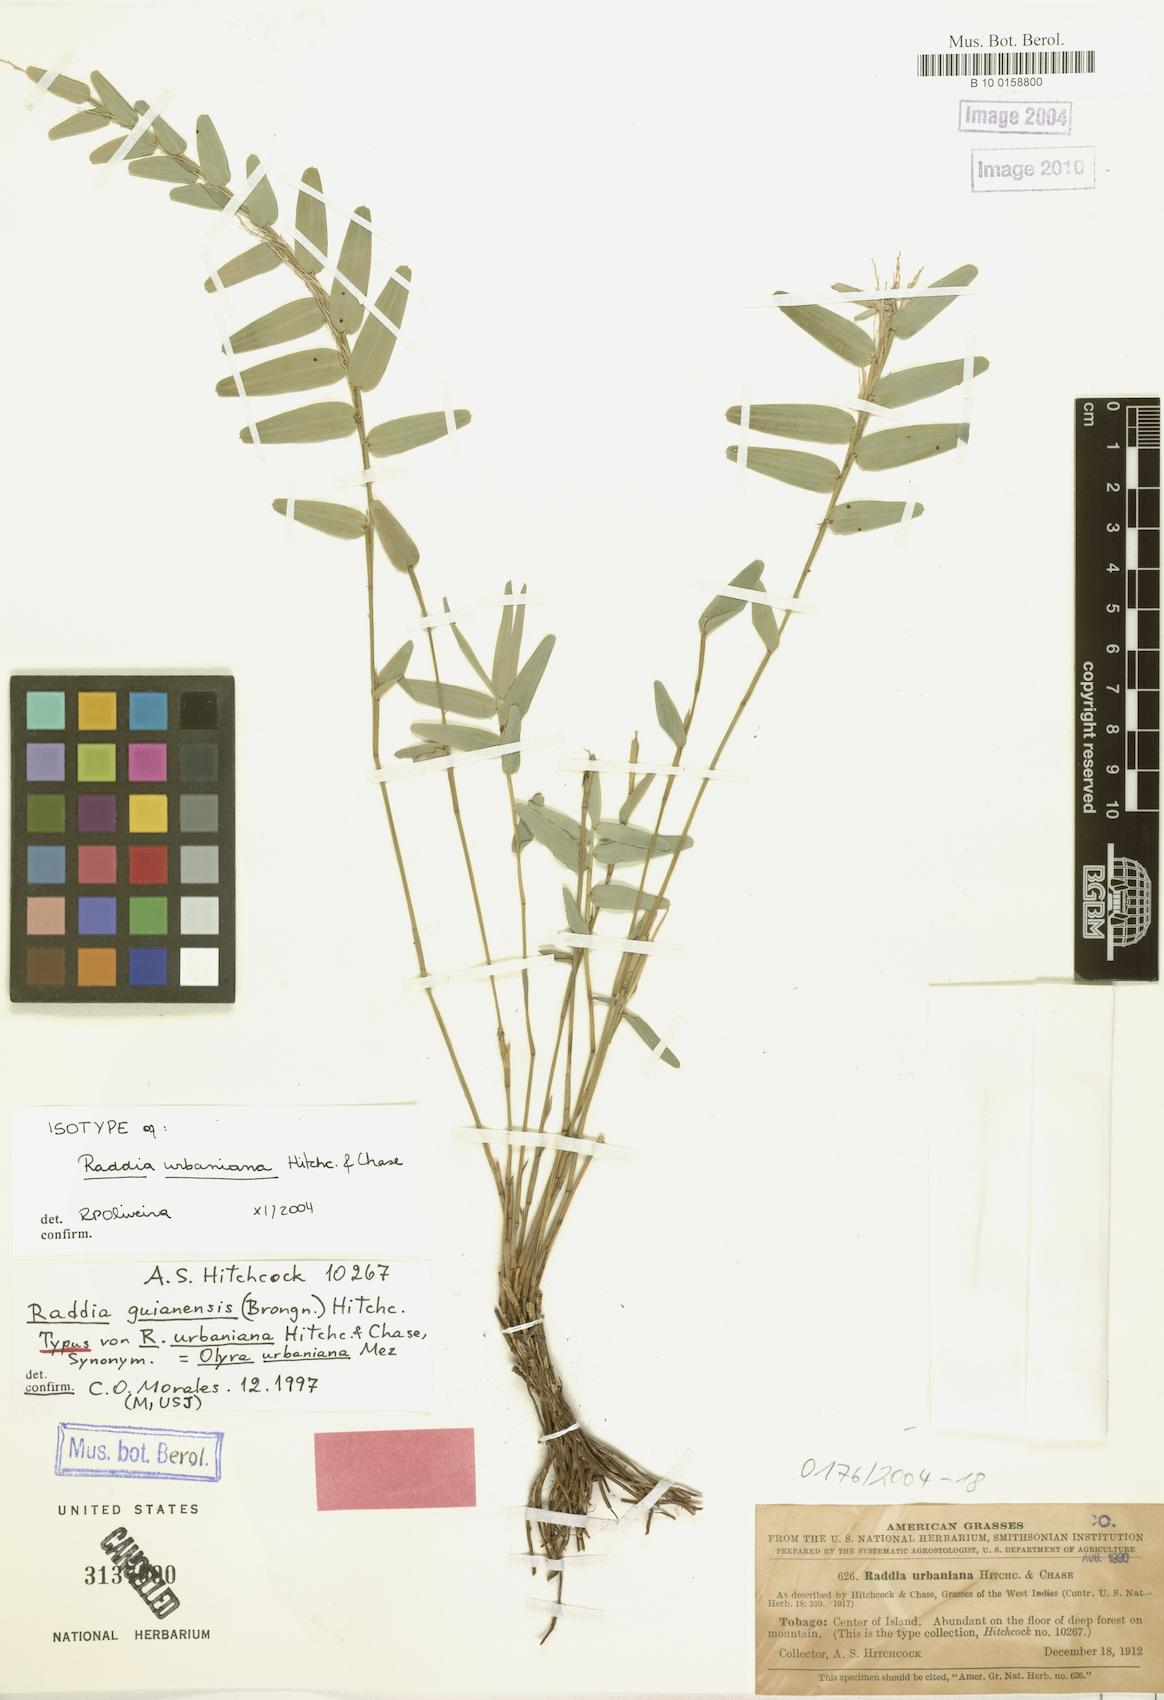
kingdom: Plantae
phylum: Tracheophyta
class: Liliopsida
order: Poales
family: Poaceae
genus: Raddia
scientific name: Raddia guianensis
